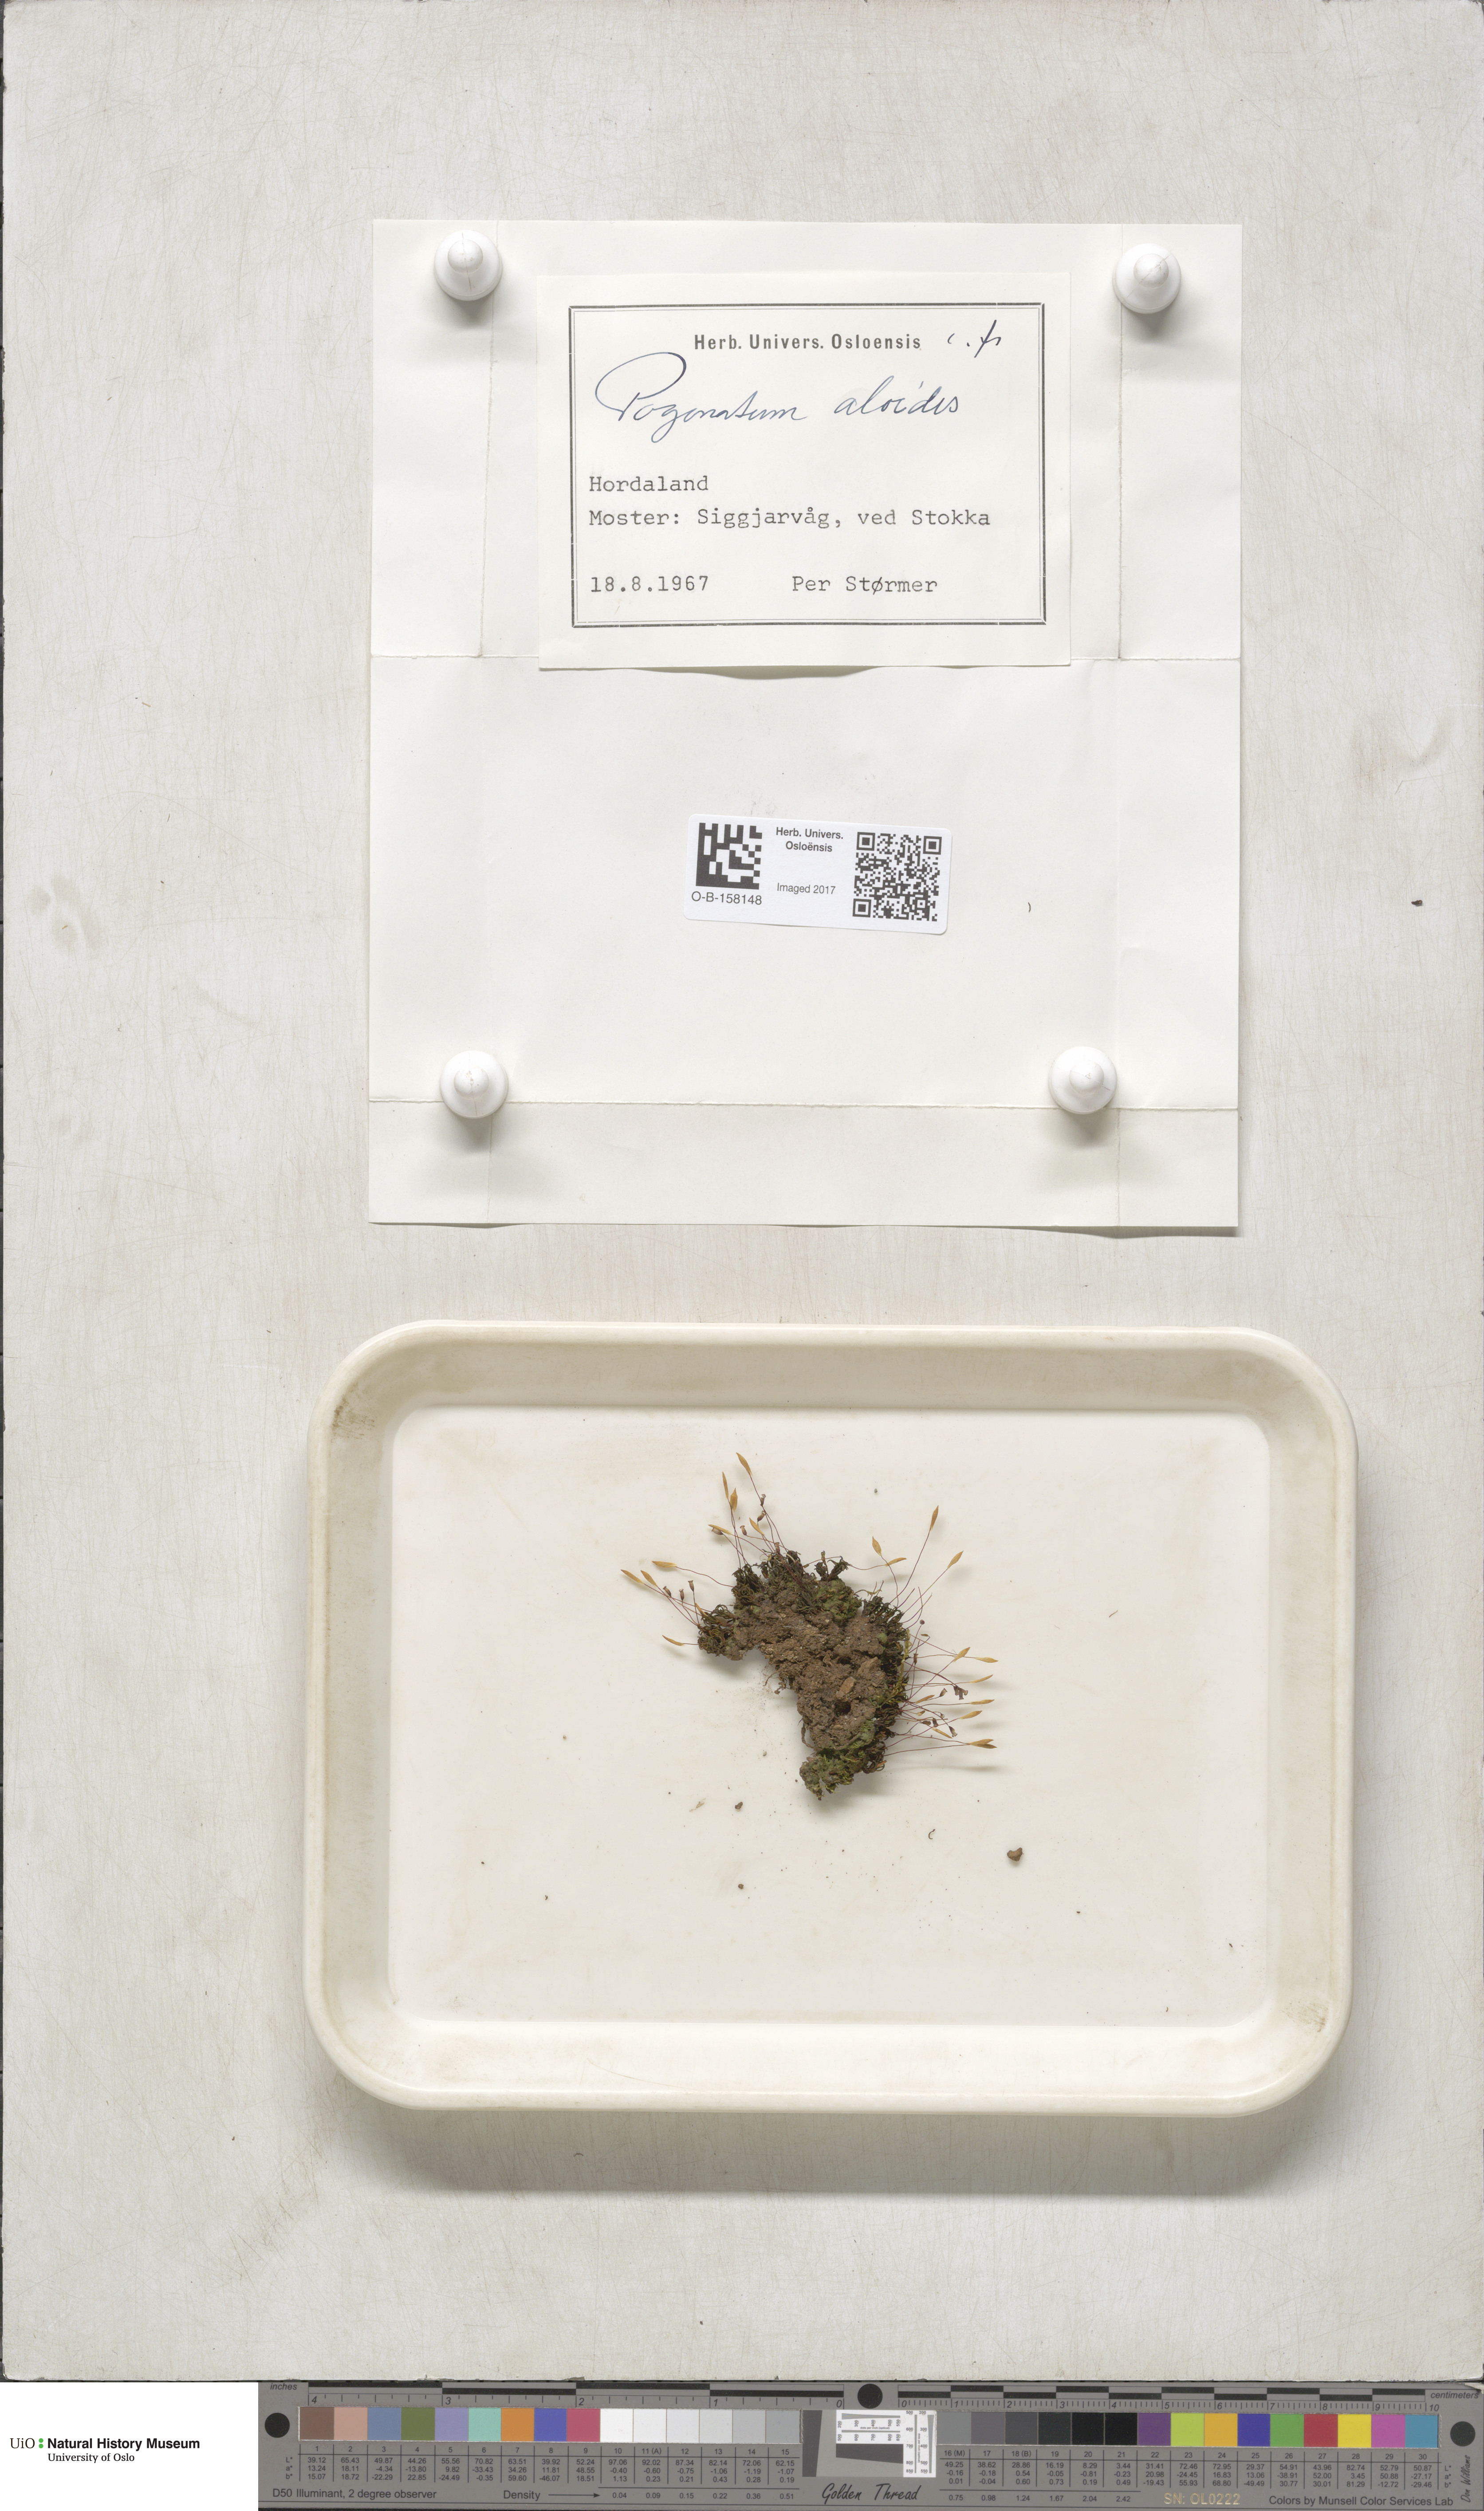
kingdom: Plantae
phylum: Bryophyta
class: Polytrichopsida
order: Polytrichales
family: Polytrichaceae
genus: Pogonatum
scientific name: Pogonatum aloides
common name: Aloe haircap
